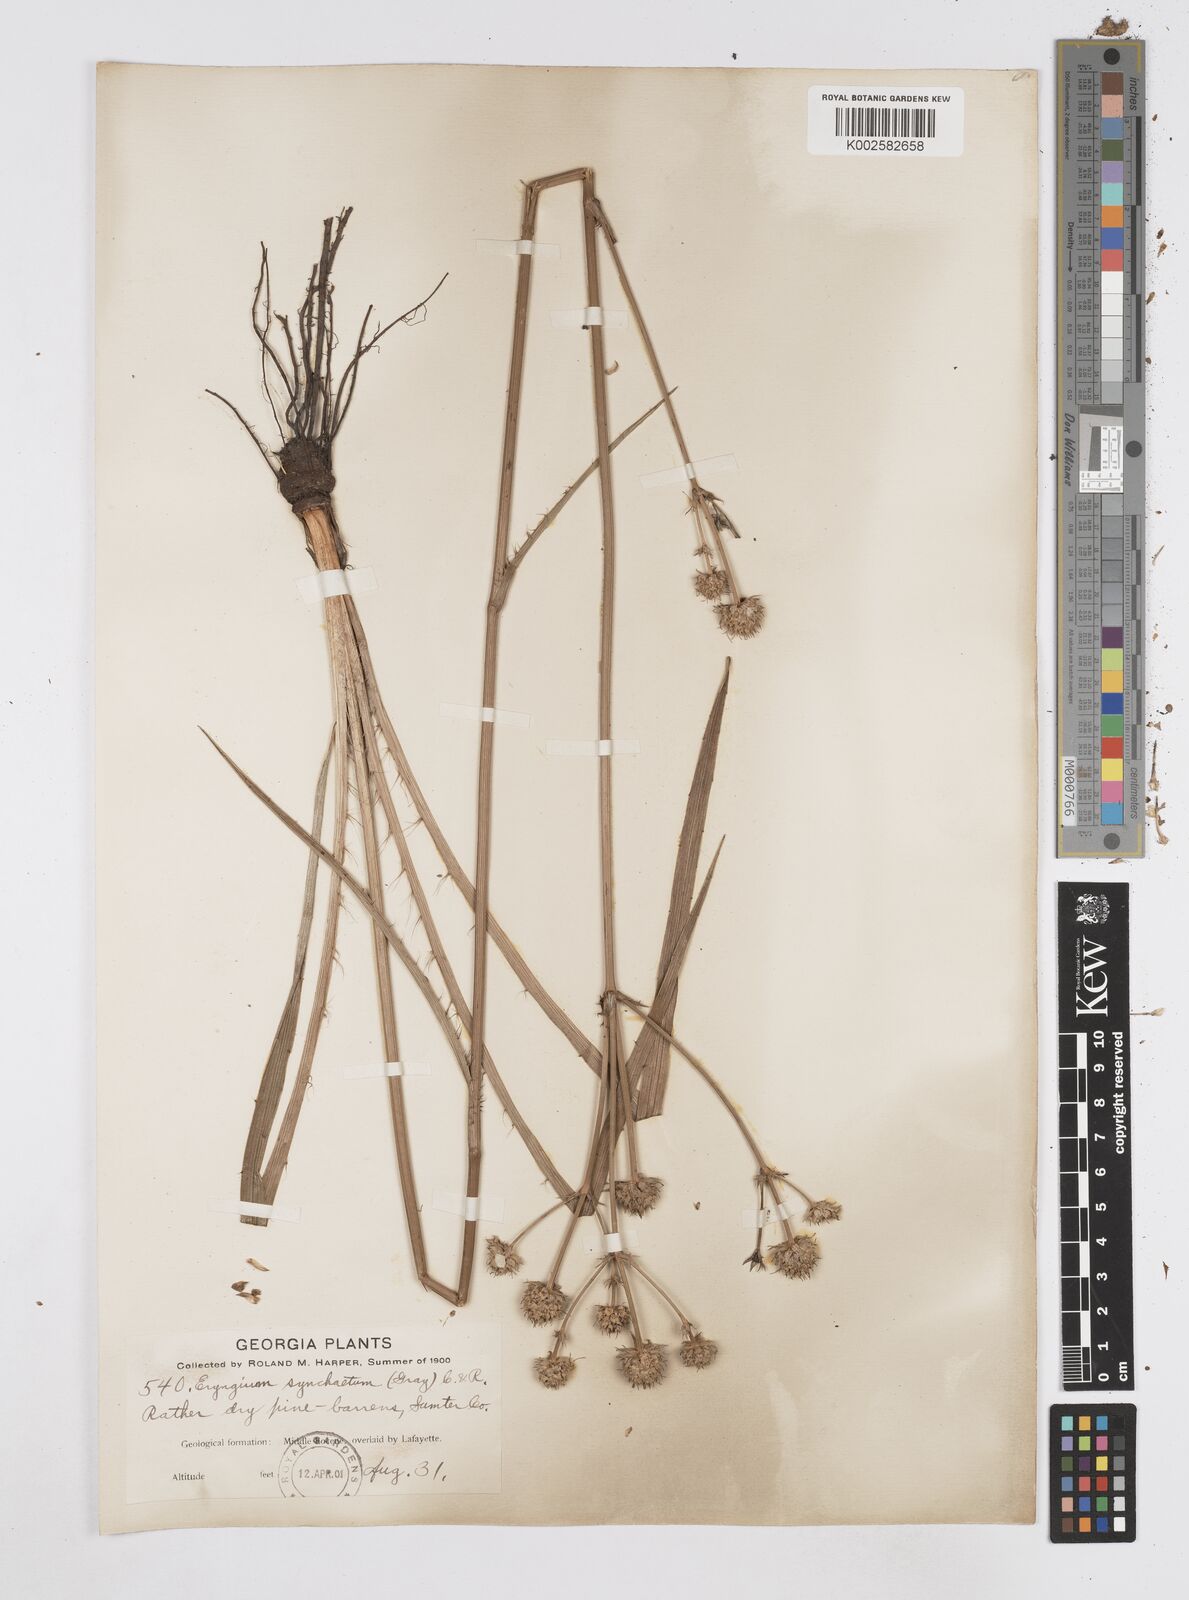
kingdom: Plantae
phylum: Tracheophyta
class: Magnoliopsida
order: Apiales
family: Apiaceae
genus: Eryngium
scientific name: Eryngium yuccifolium
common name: Button eryngo
